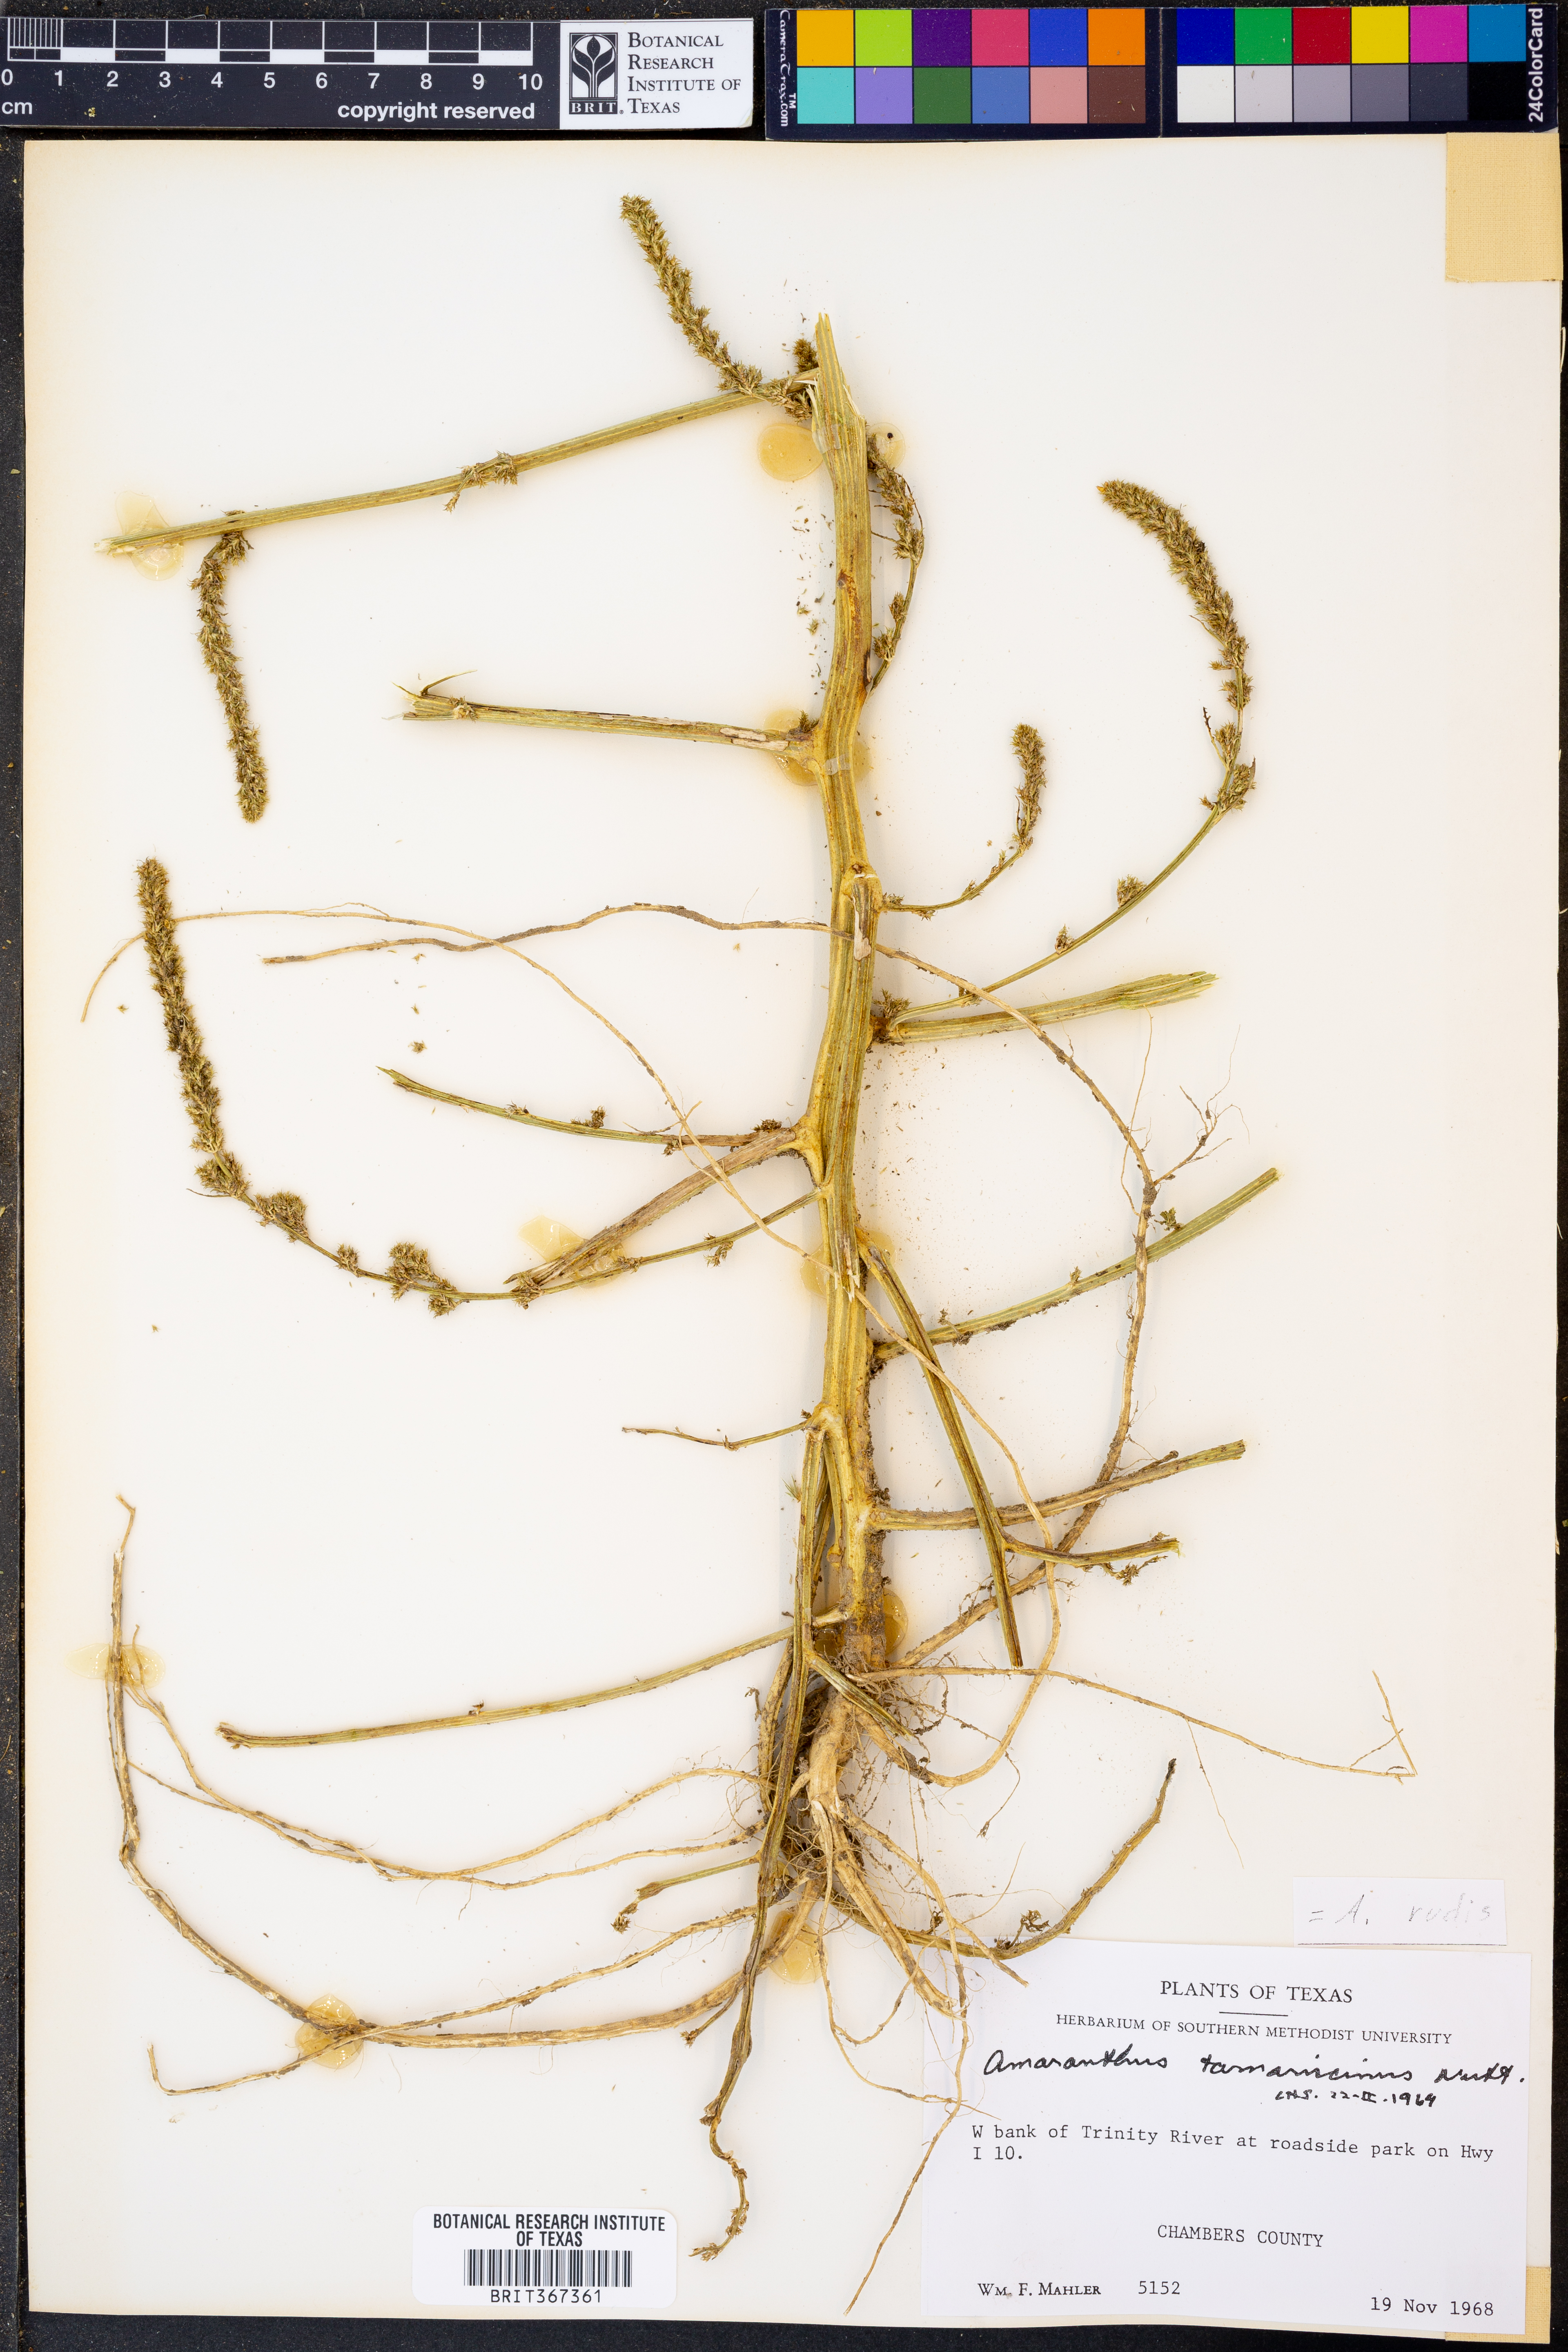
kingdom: Plantae
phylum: Tracheophyta
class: Magnoliopsida
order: Caryophyllales
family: Amaranthaceae
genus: Amaranthus
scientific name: Amaranthus tuberculatus
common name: Rough-fruit amaranth
